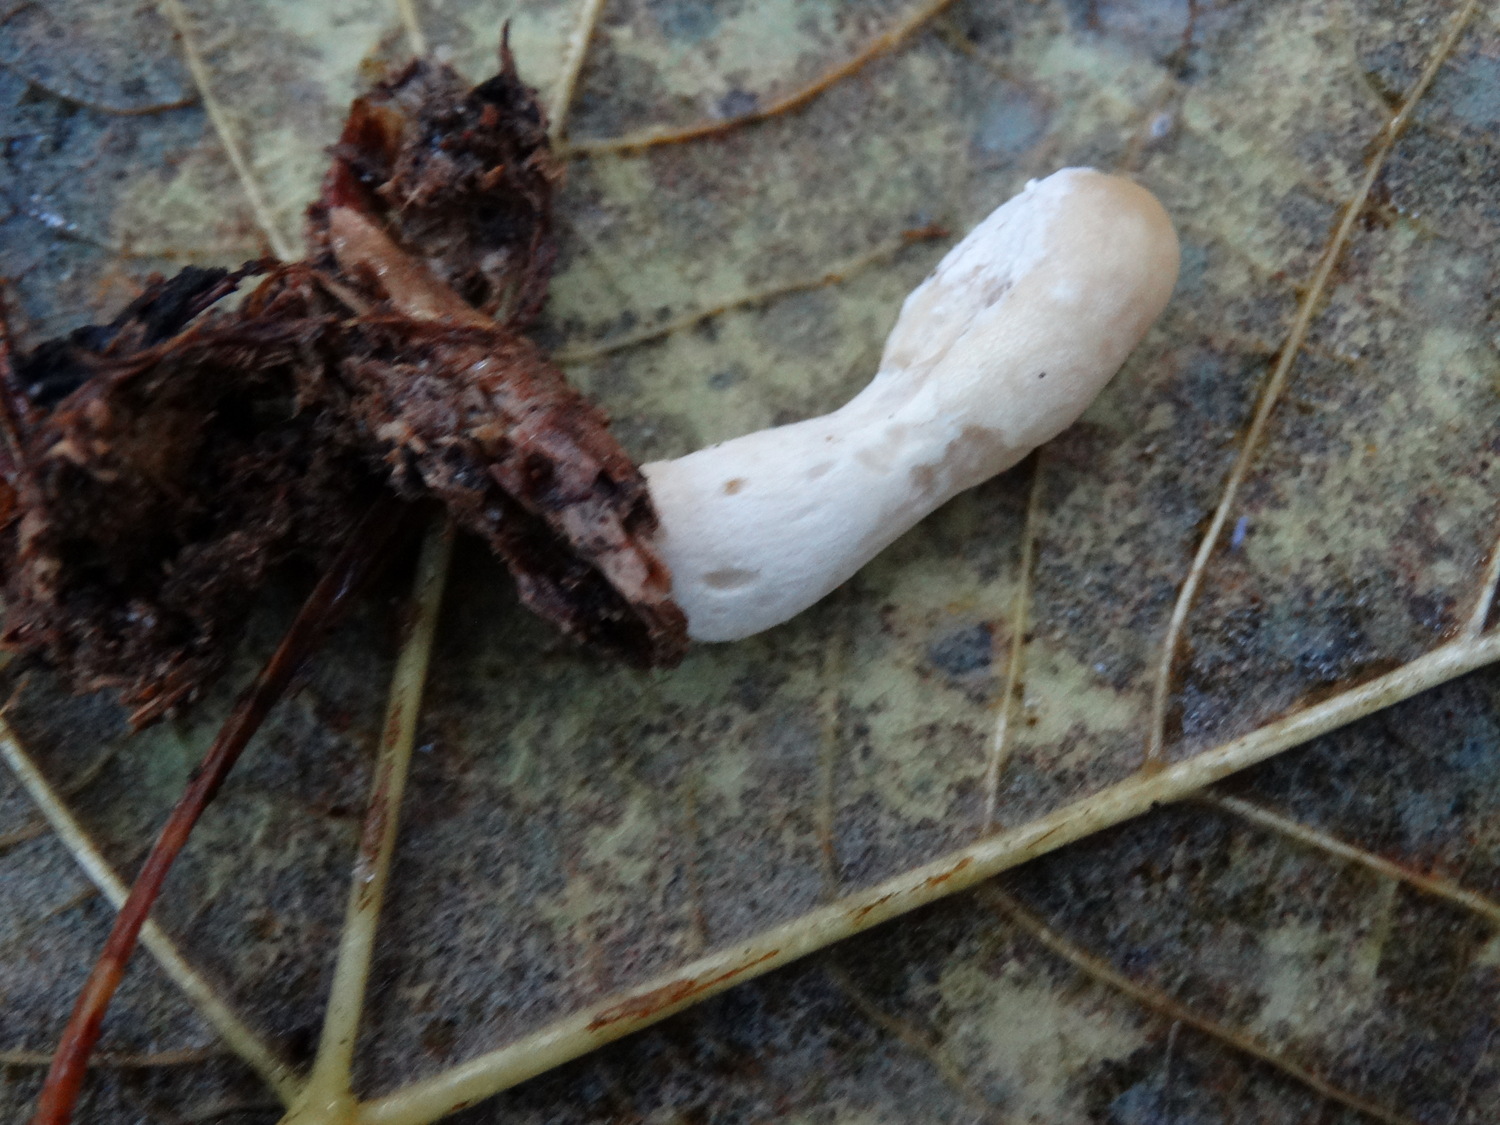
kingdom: Fungi
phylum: Ascomycota
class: Sordariomycetes
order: Hypocreales
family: Hypocreaceae
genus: Trichoderma
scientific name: Trichoderma leucopus
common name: lysstokket kødkerne
